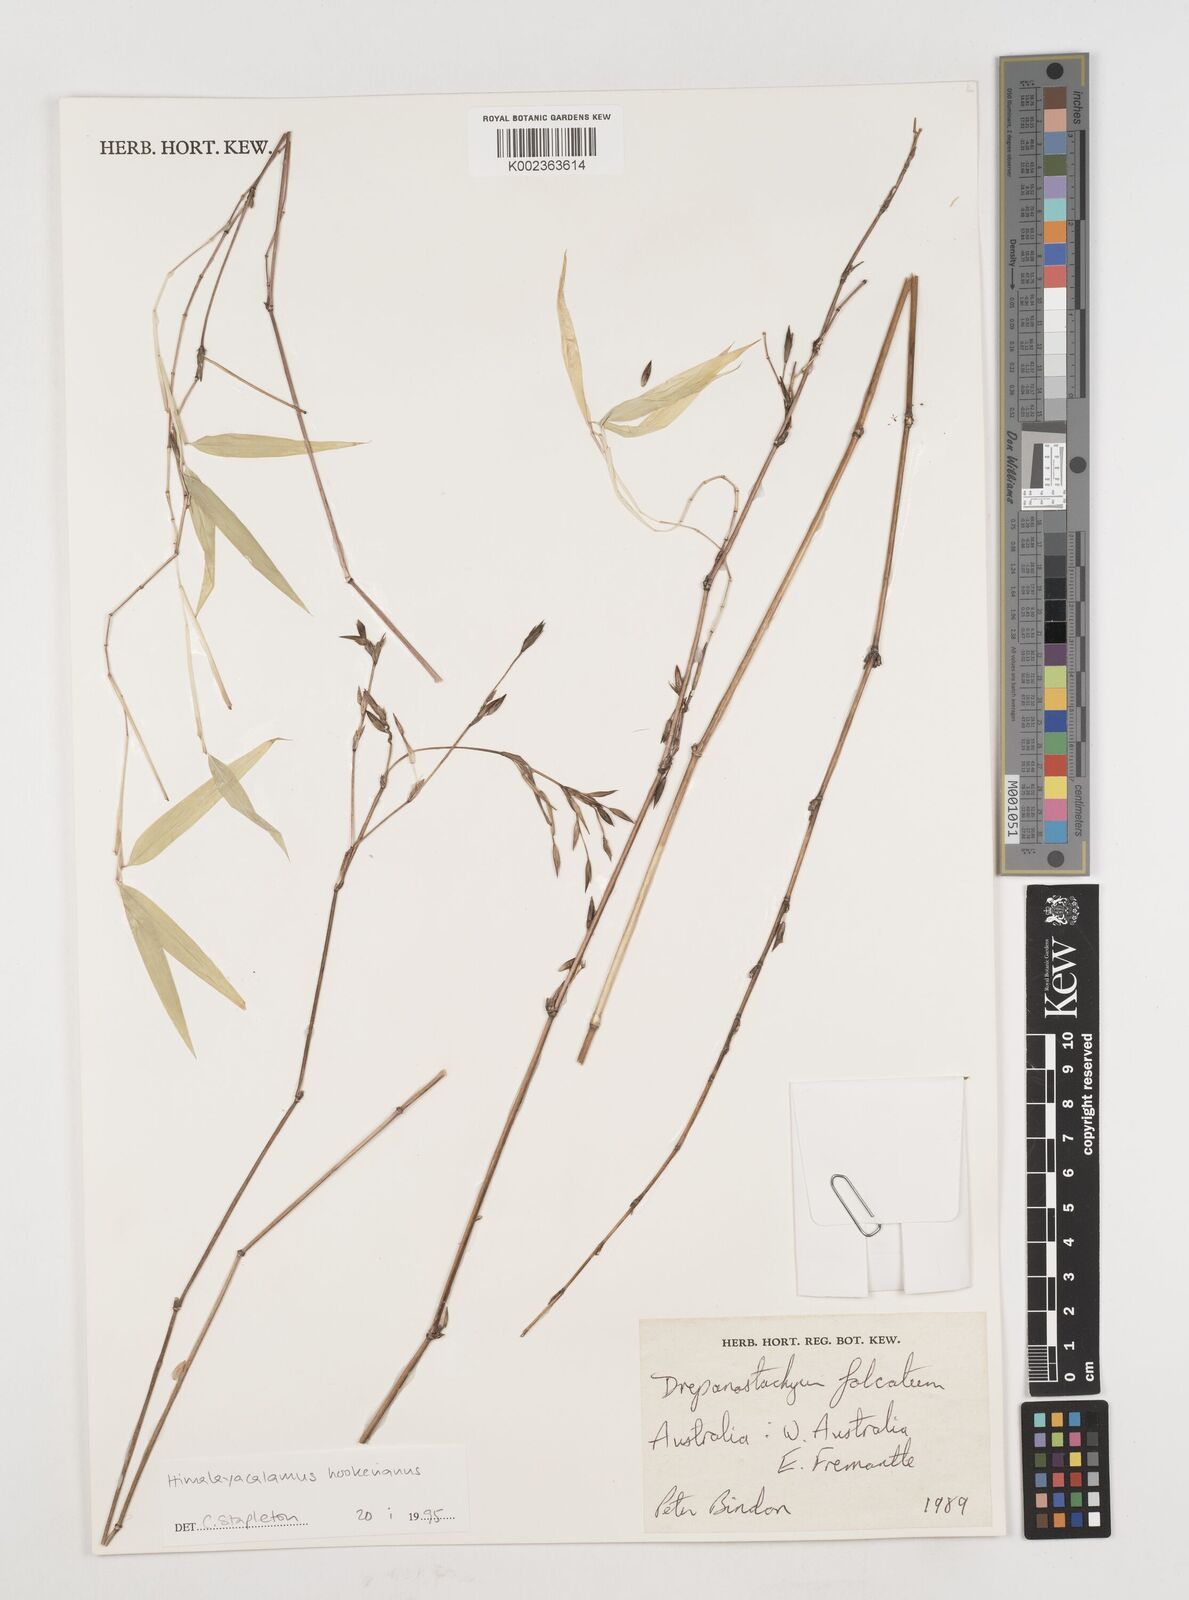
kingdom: Plantae
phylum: Tracheophyta
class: Liliopsida
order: Poales
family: Poaceae
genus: Himalayacalamus
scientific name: Himalayacalamus hookerianus
